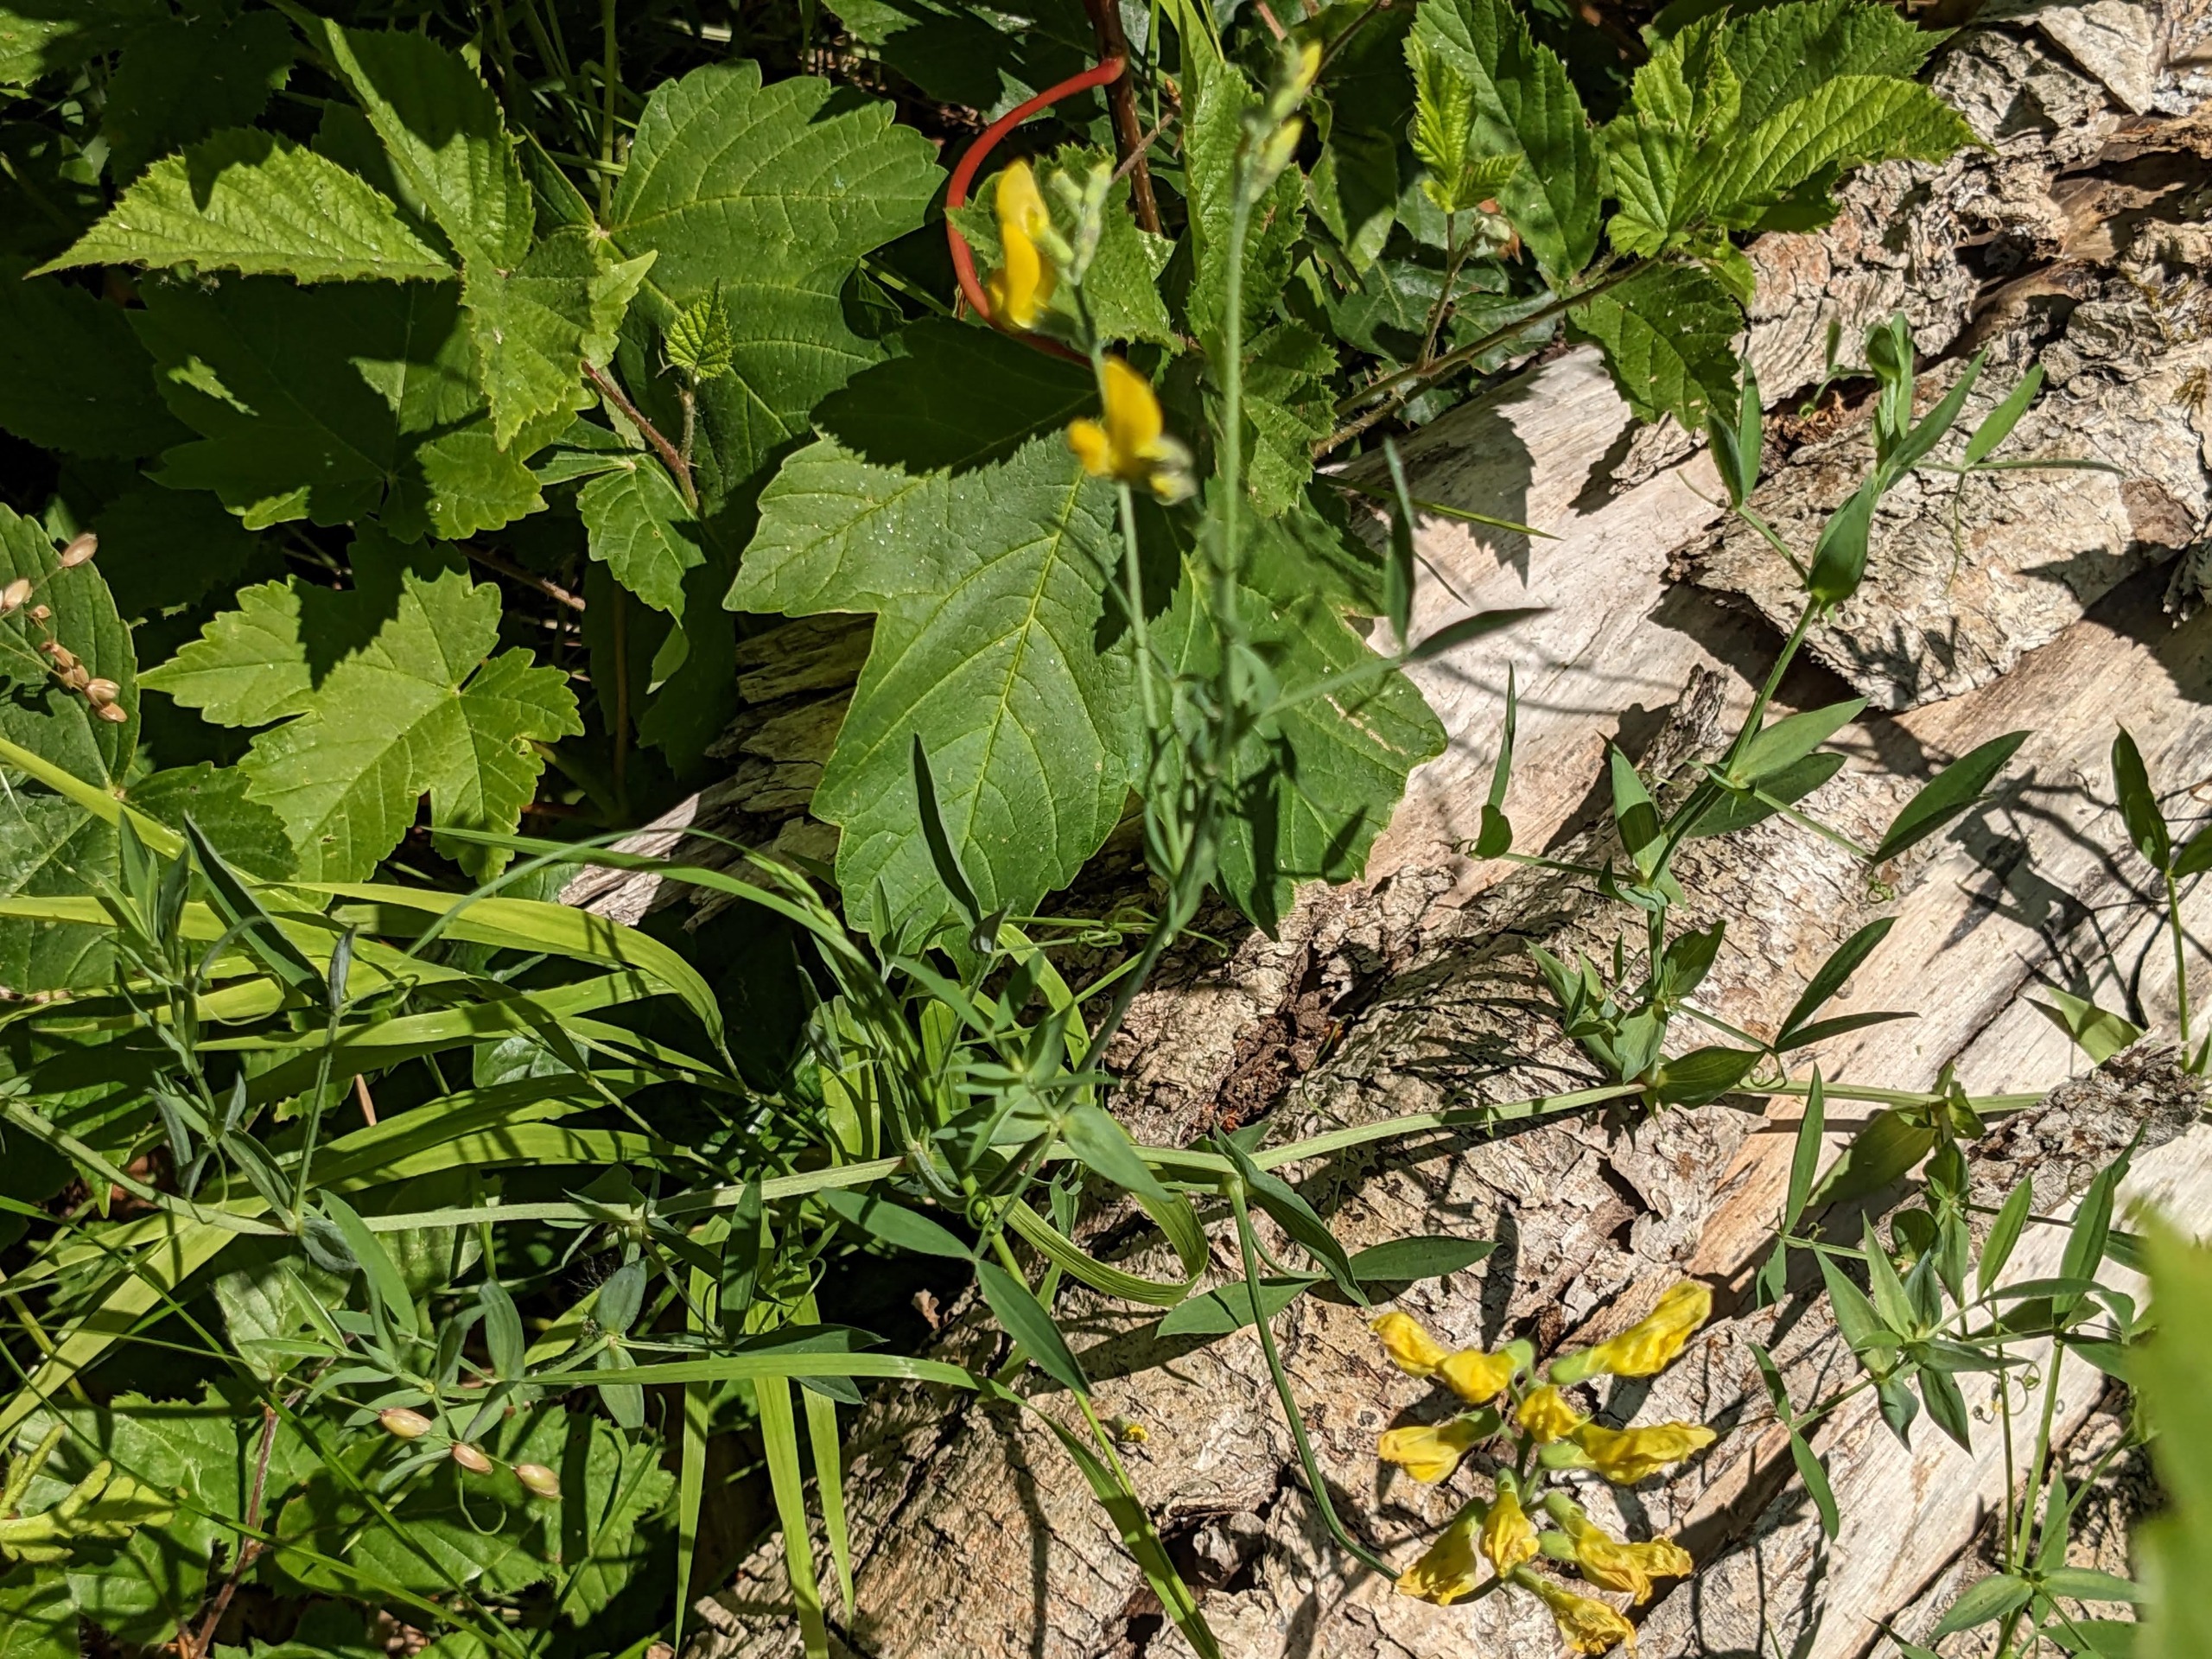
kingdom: Plantae
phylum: Tracheophyta
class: Magnoliopsida
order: Fabales
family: Fabaceae
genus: Lathyrus
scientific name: Lathyrus pratensis
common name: Gul fladbælg
